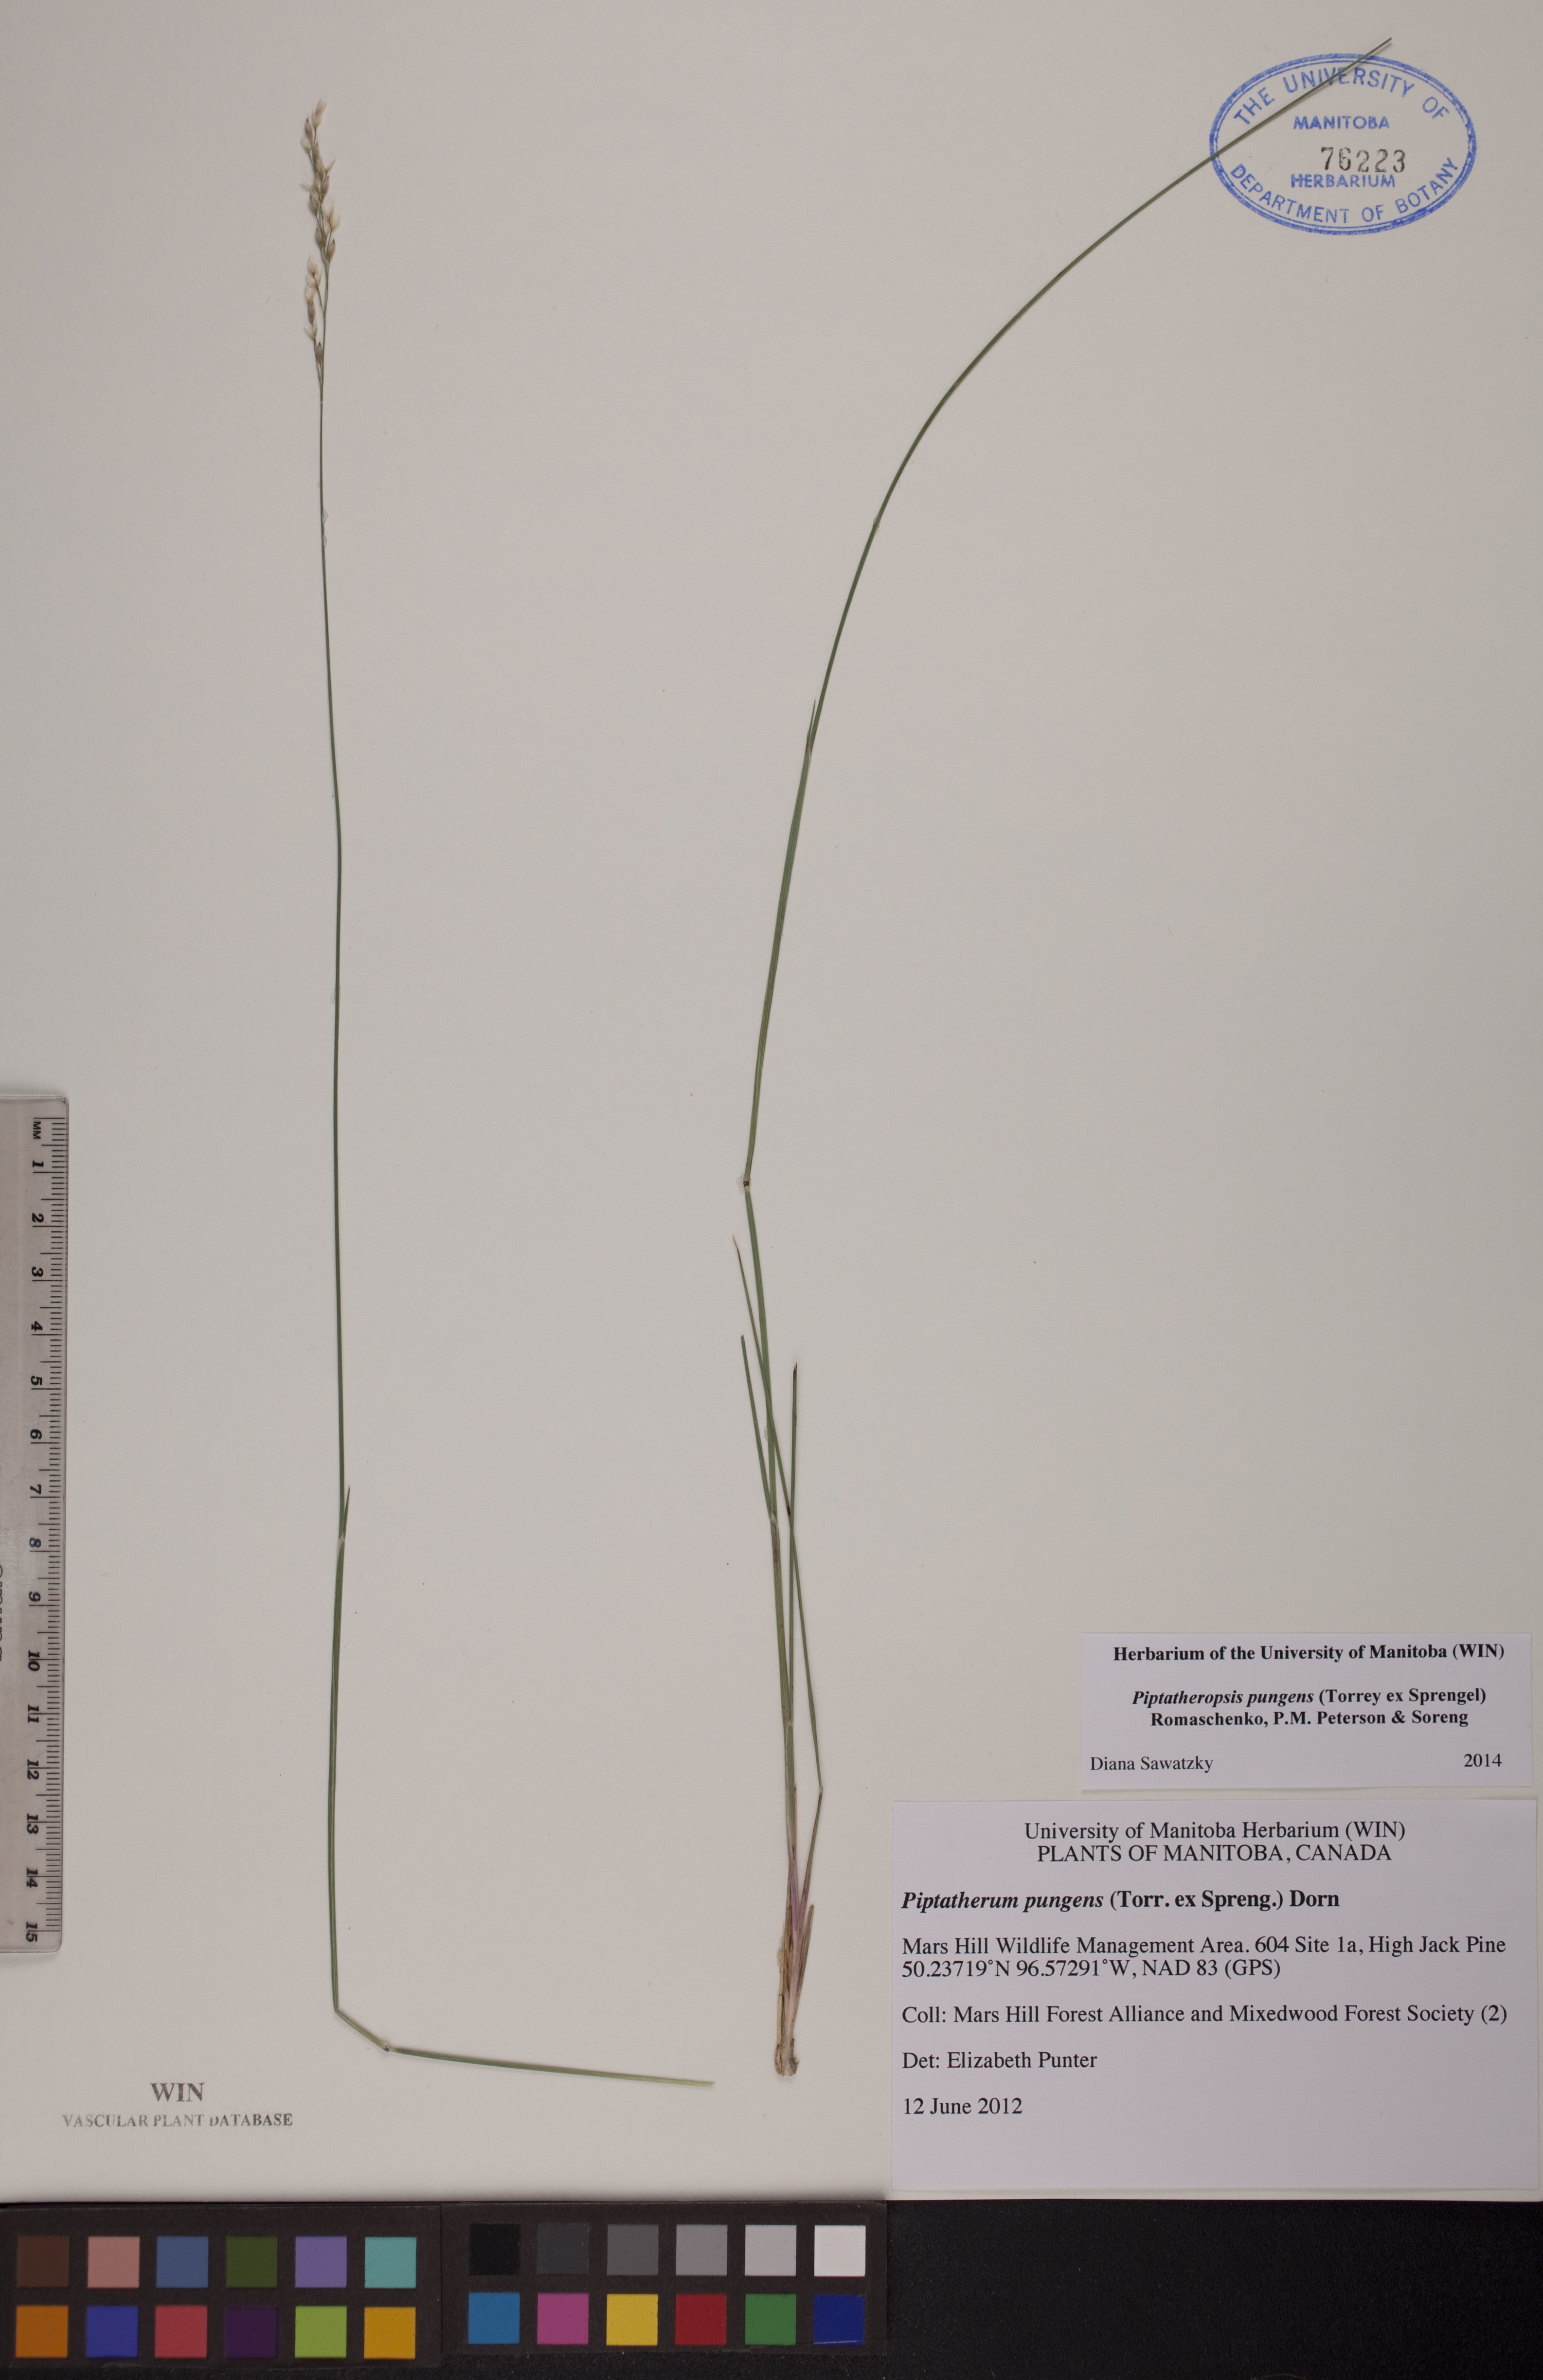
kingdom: Plantae
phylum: Tracheophyta
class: Liliopsida
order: Poales
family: Poaceae
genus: Piptatheropsis
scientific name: Piptatheropsis pungens
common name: Northern ricegrass
